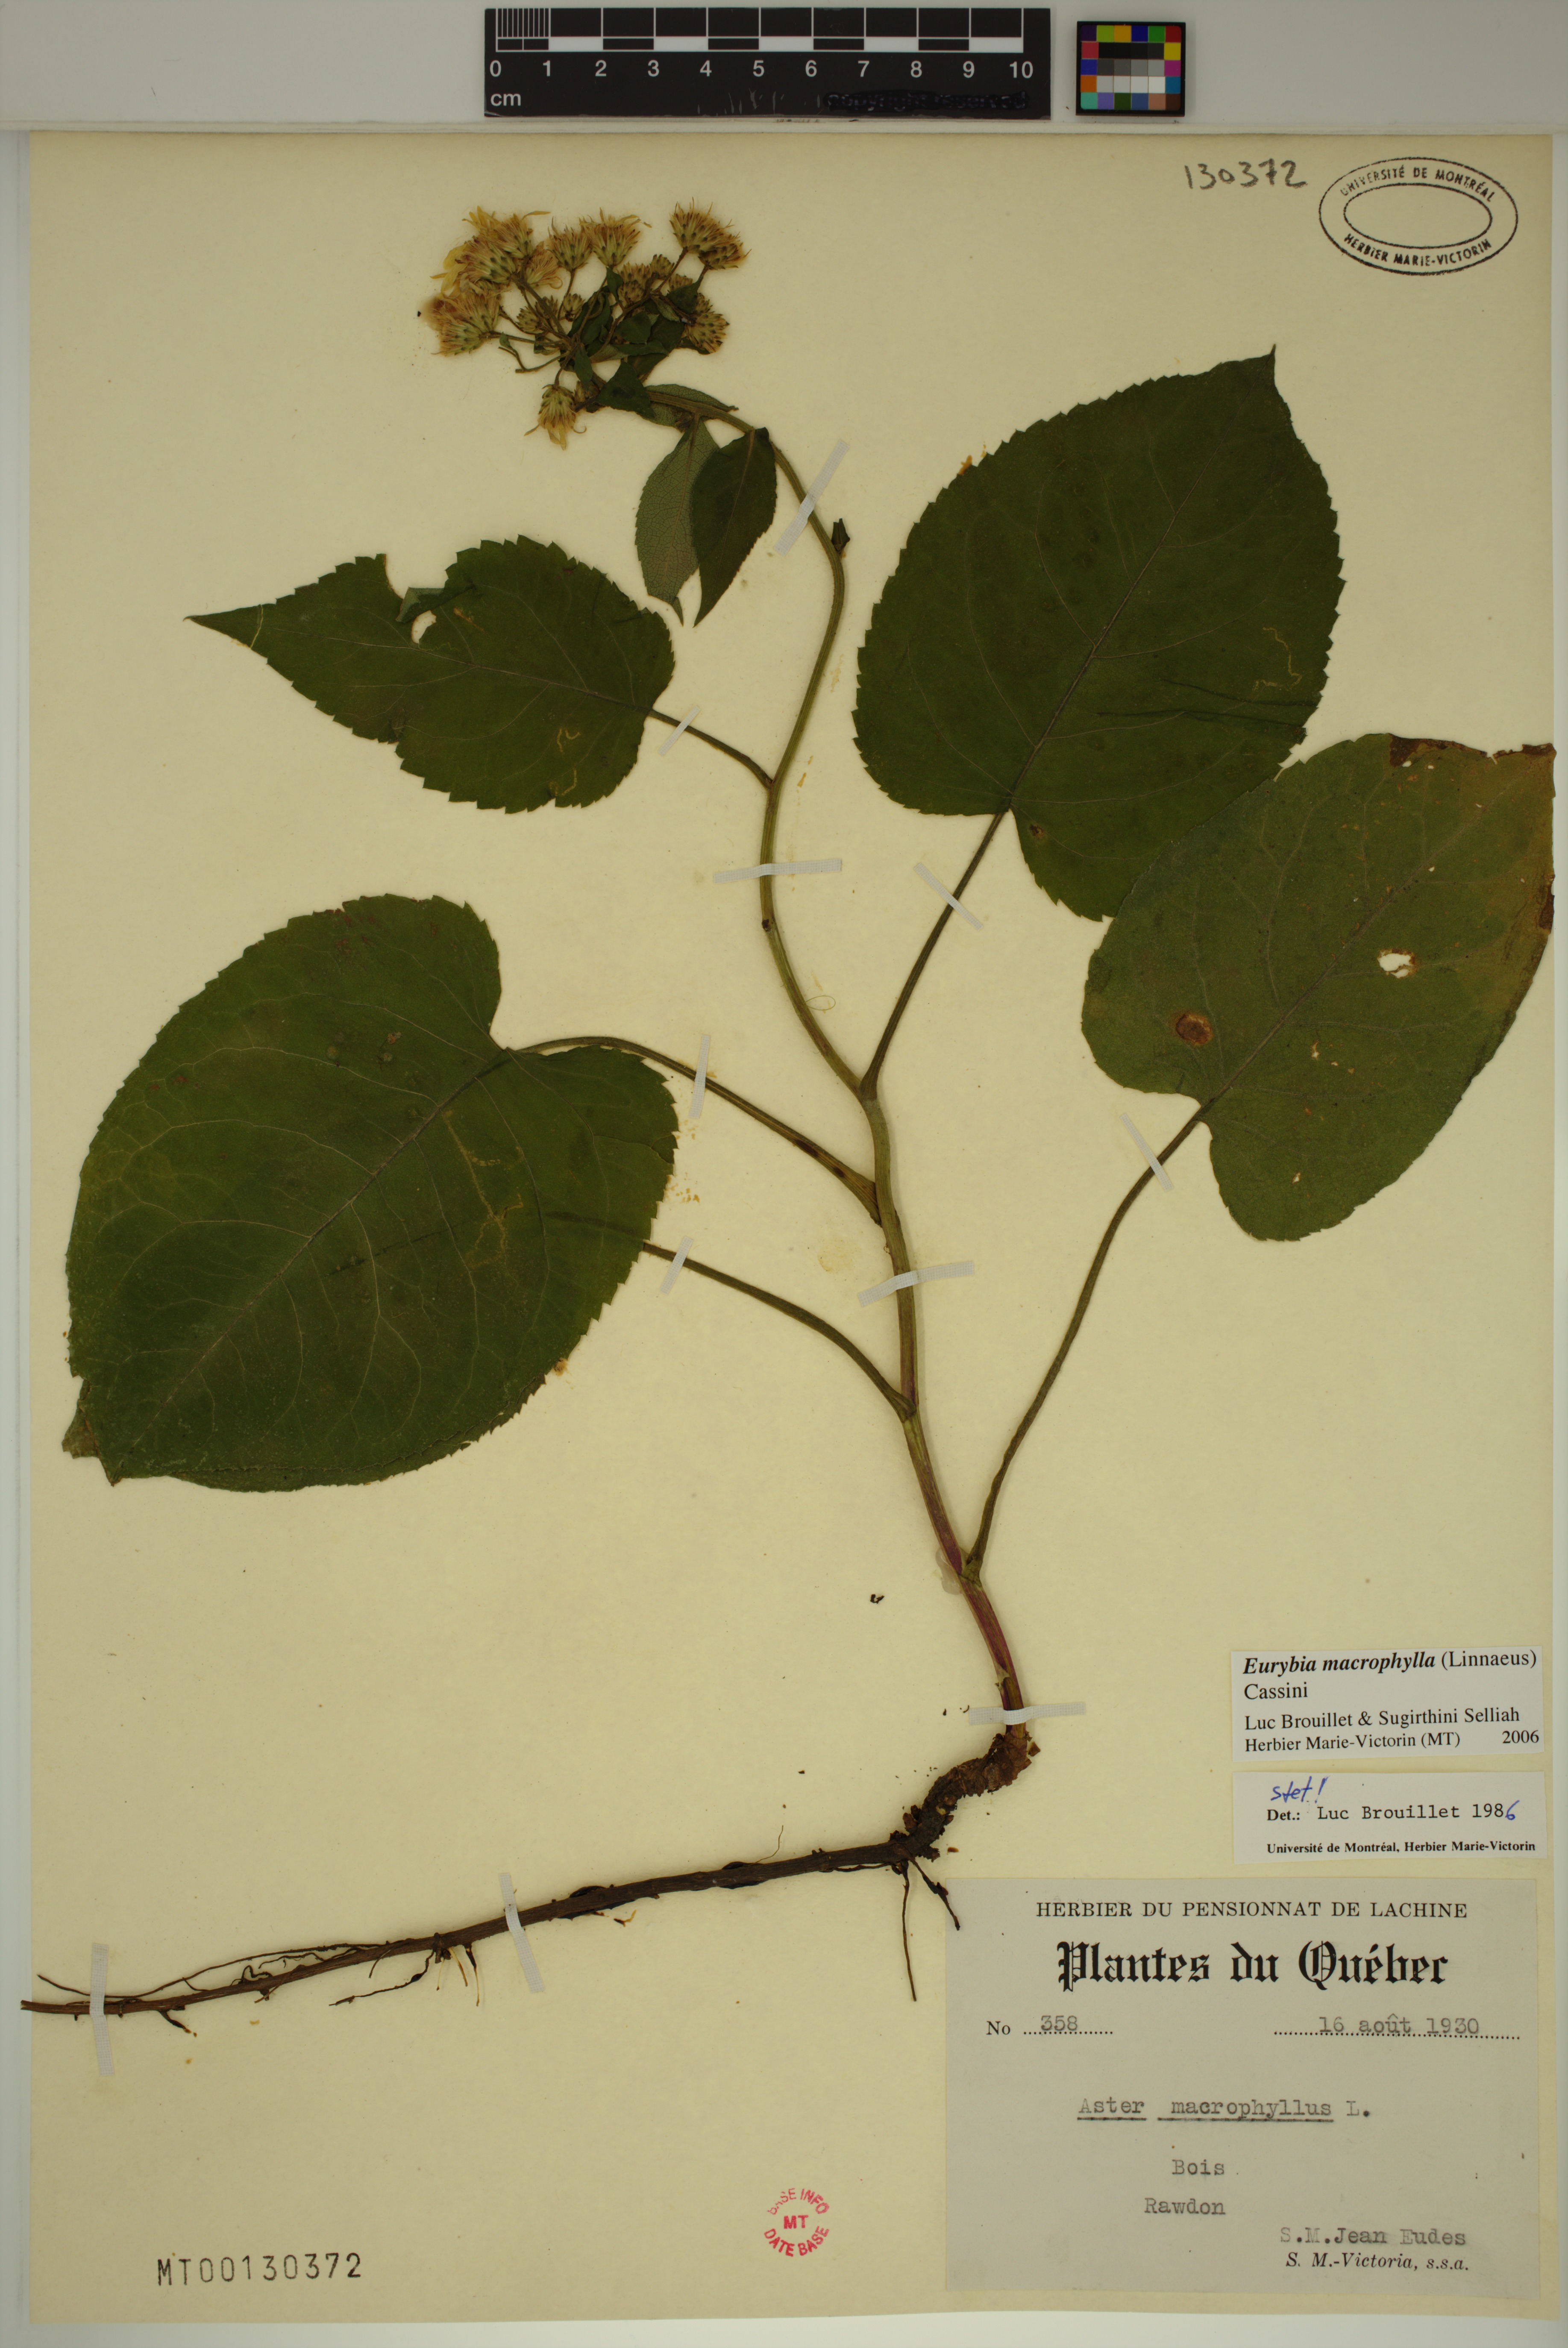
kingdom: Plantae
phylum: Tracheophyta
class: Magnoliopsida
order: Asterales
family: Asteraceae
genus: Eurybia
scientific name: Eurybia macrophylla
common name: Big-leaved aster
